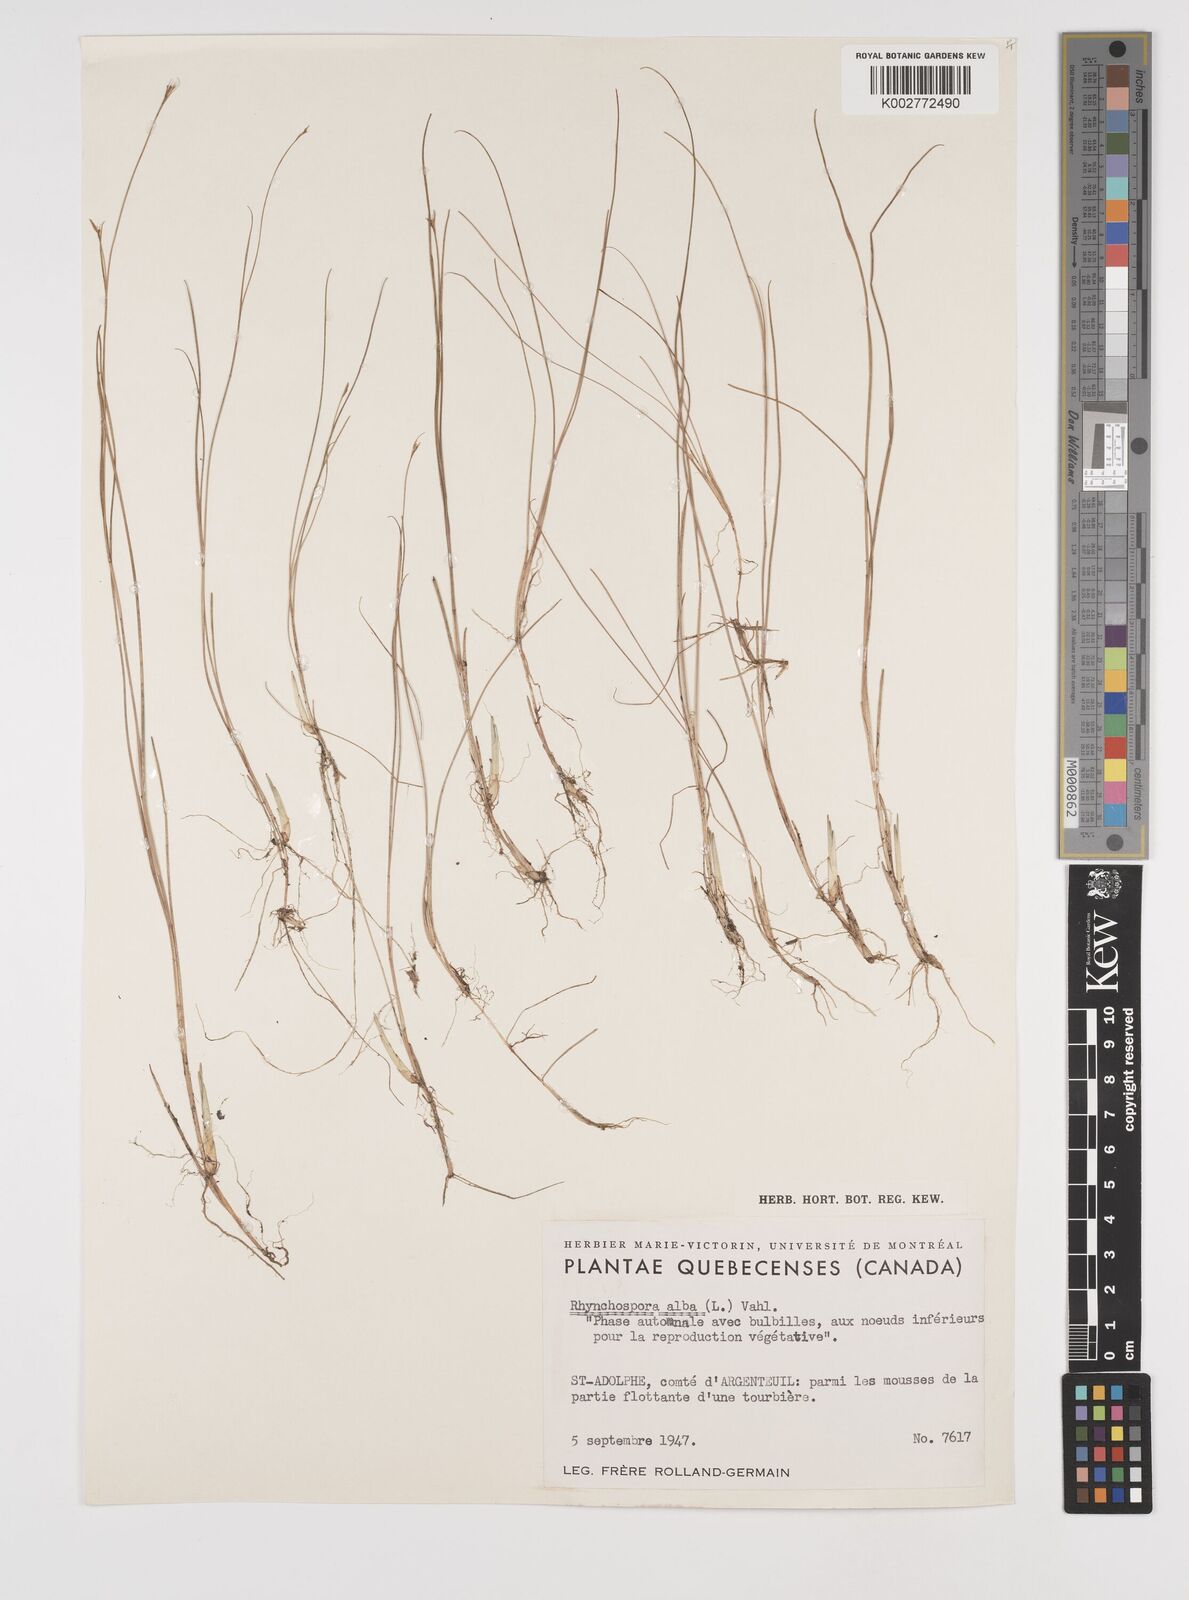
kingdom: Plantae
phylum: Tracheophyta
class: Liliopsida
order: Poales
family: Cyperaceae
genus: Rhynchospora
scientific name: Rhynchospora alba
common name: White beak-sedge
